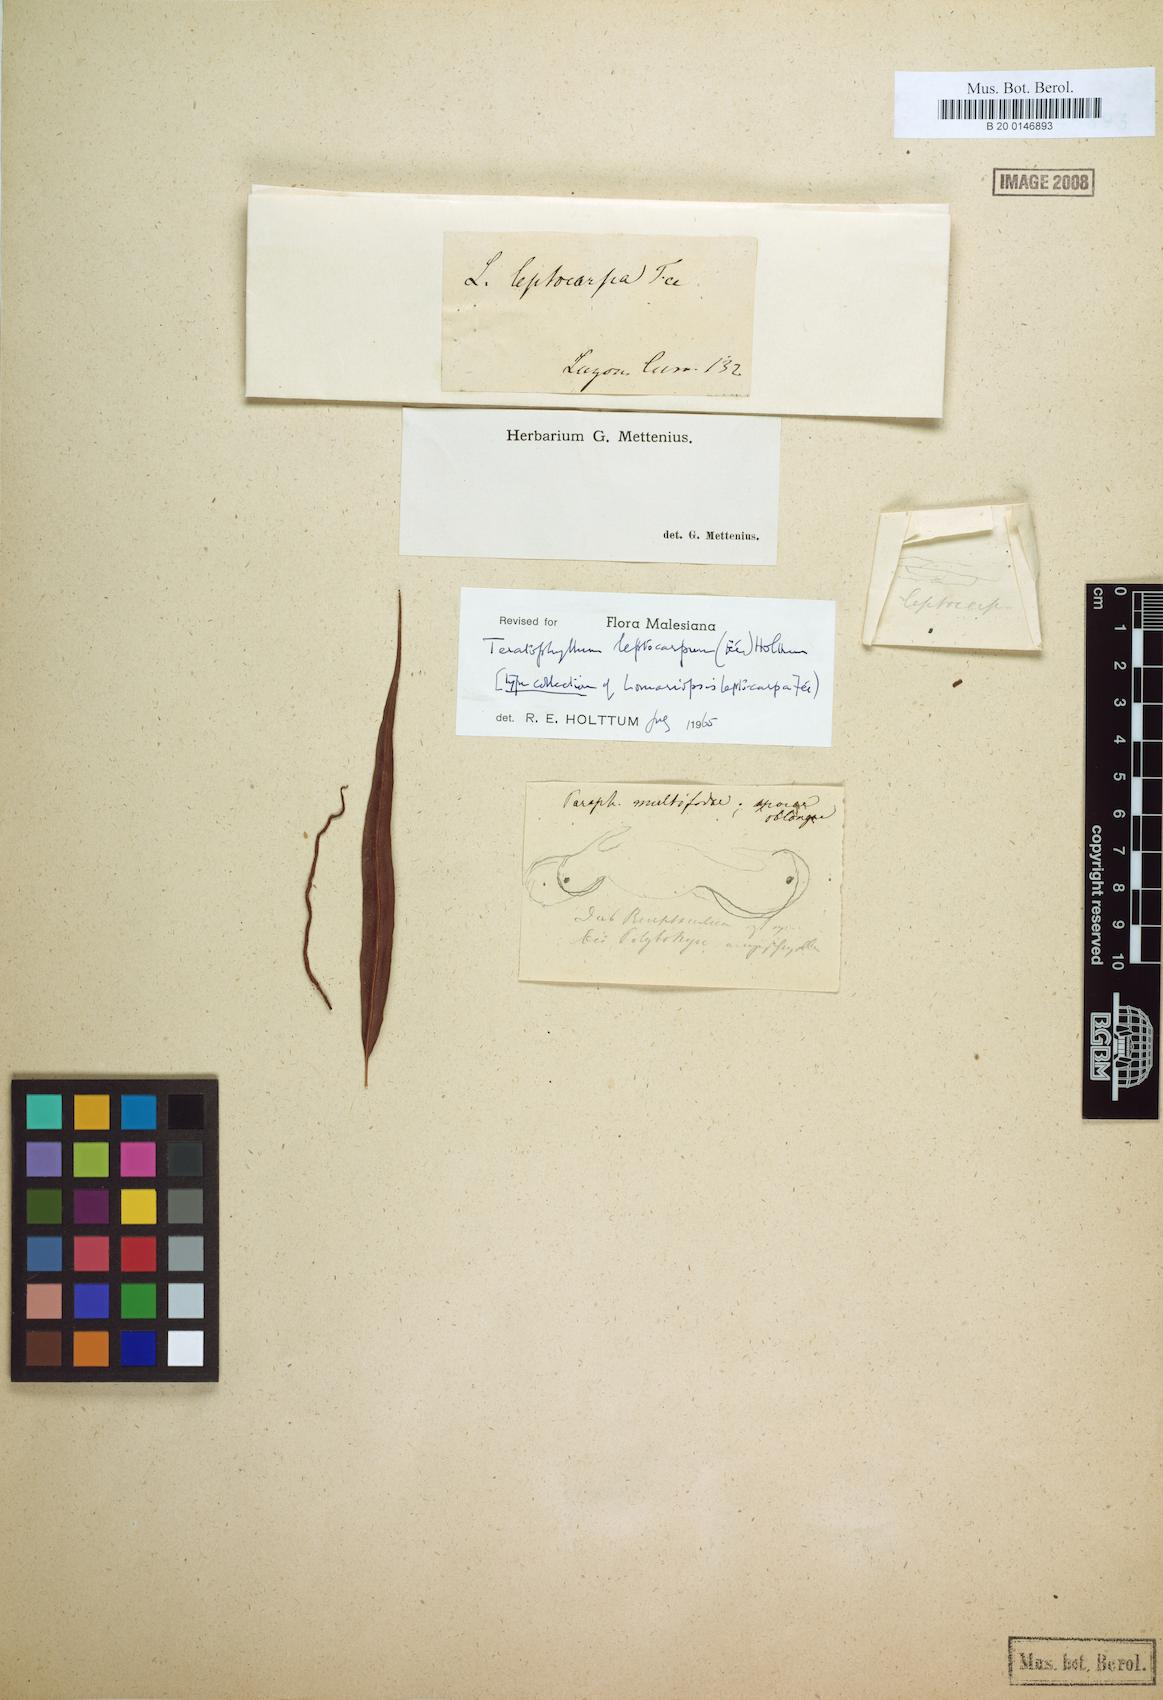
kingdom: Plantae
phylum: Tracheophyta
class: Polypodiopsida
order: Polypodiales
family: Dryopteridaceae
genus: Teratophyllum
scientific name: Teratophyllum leptocarpum
